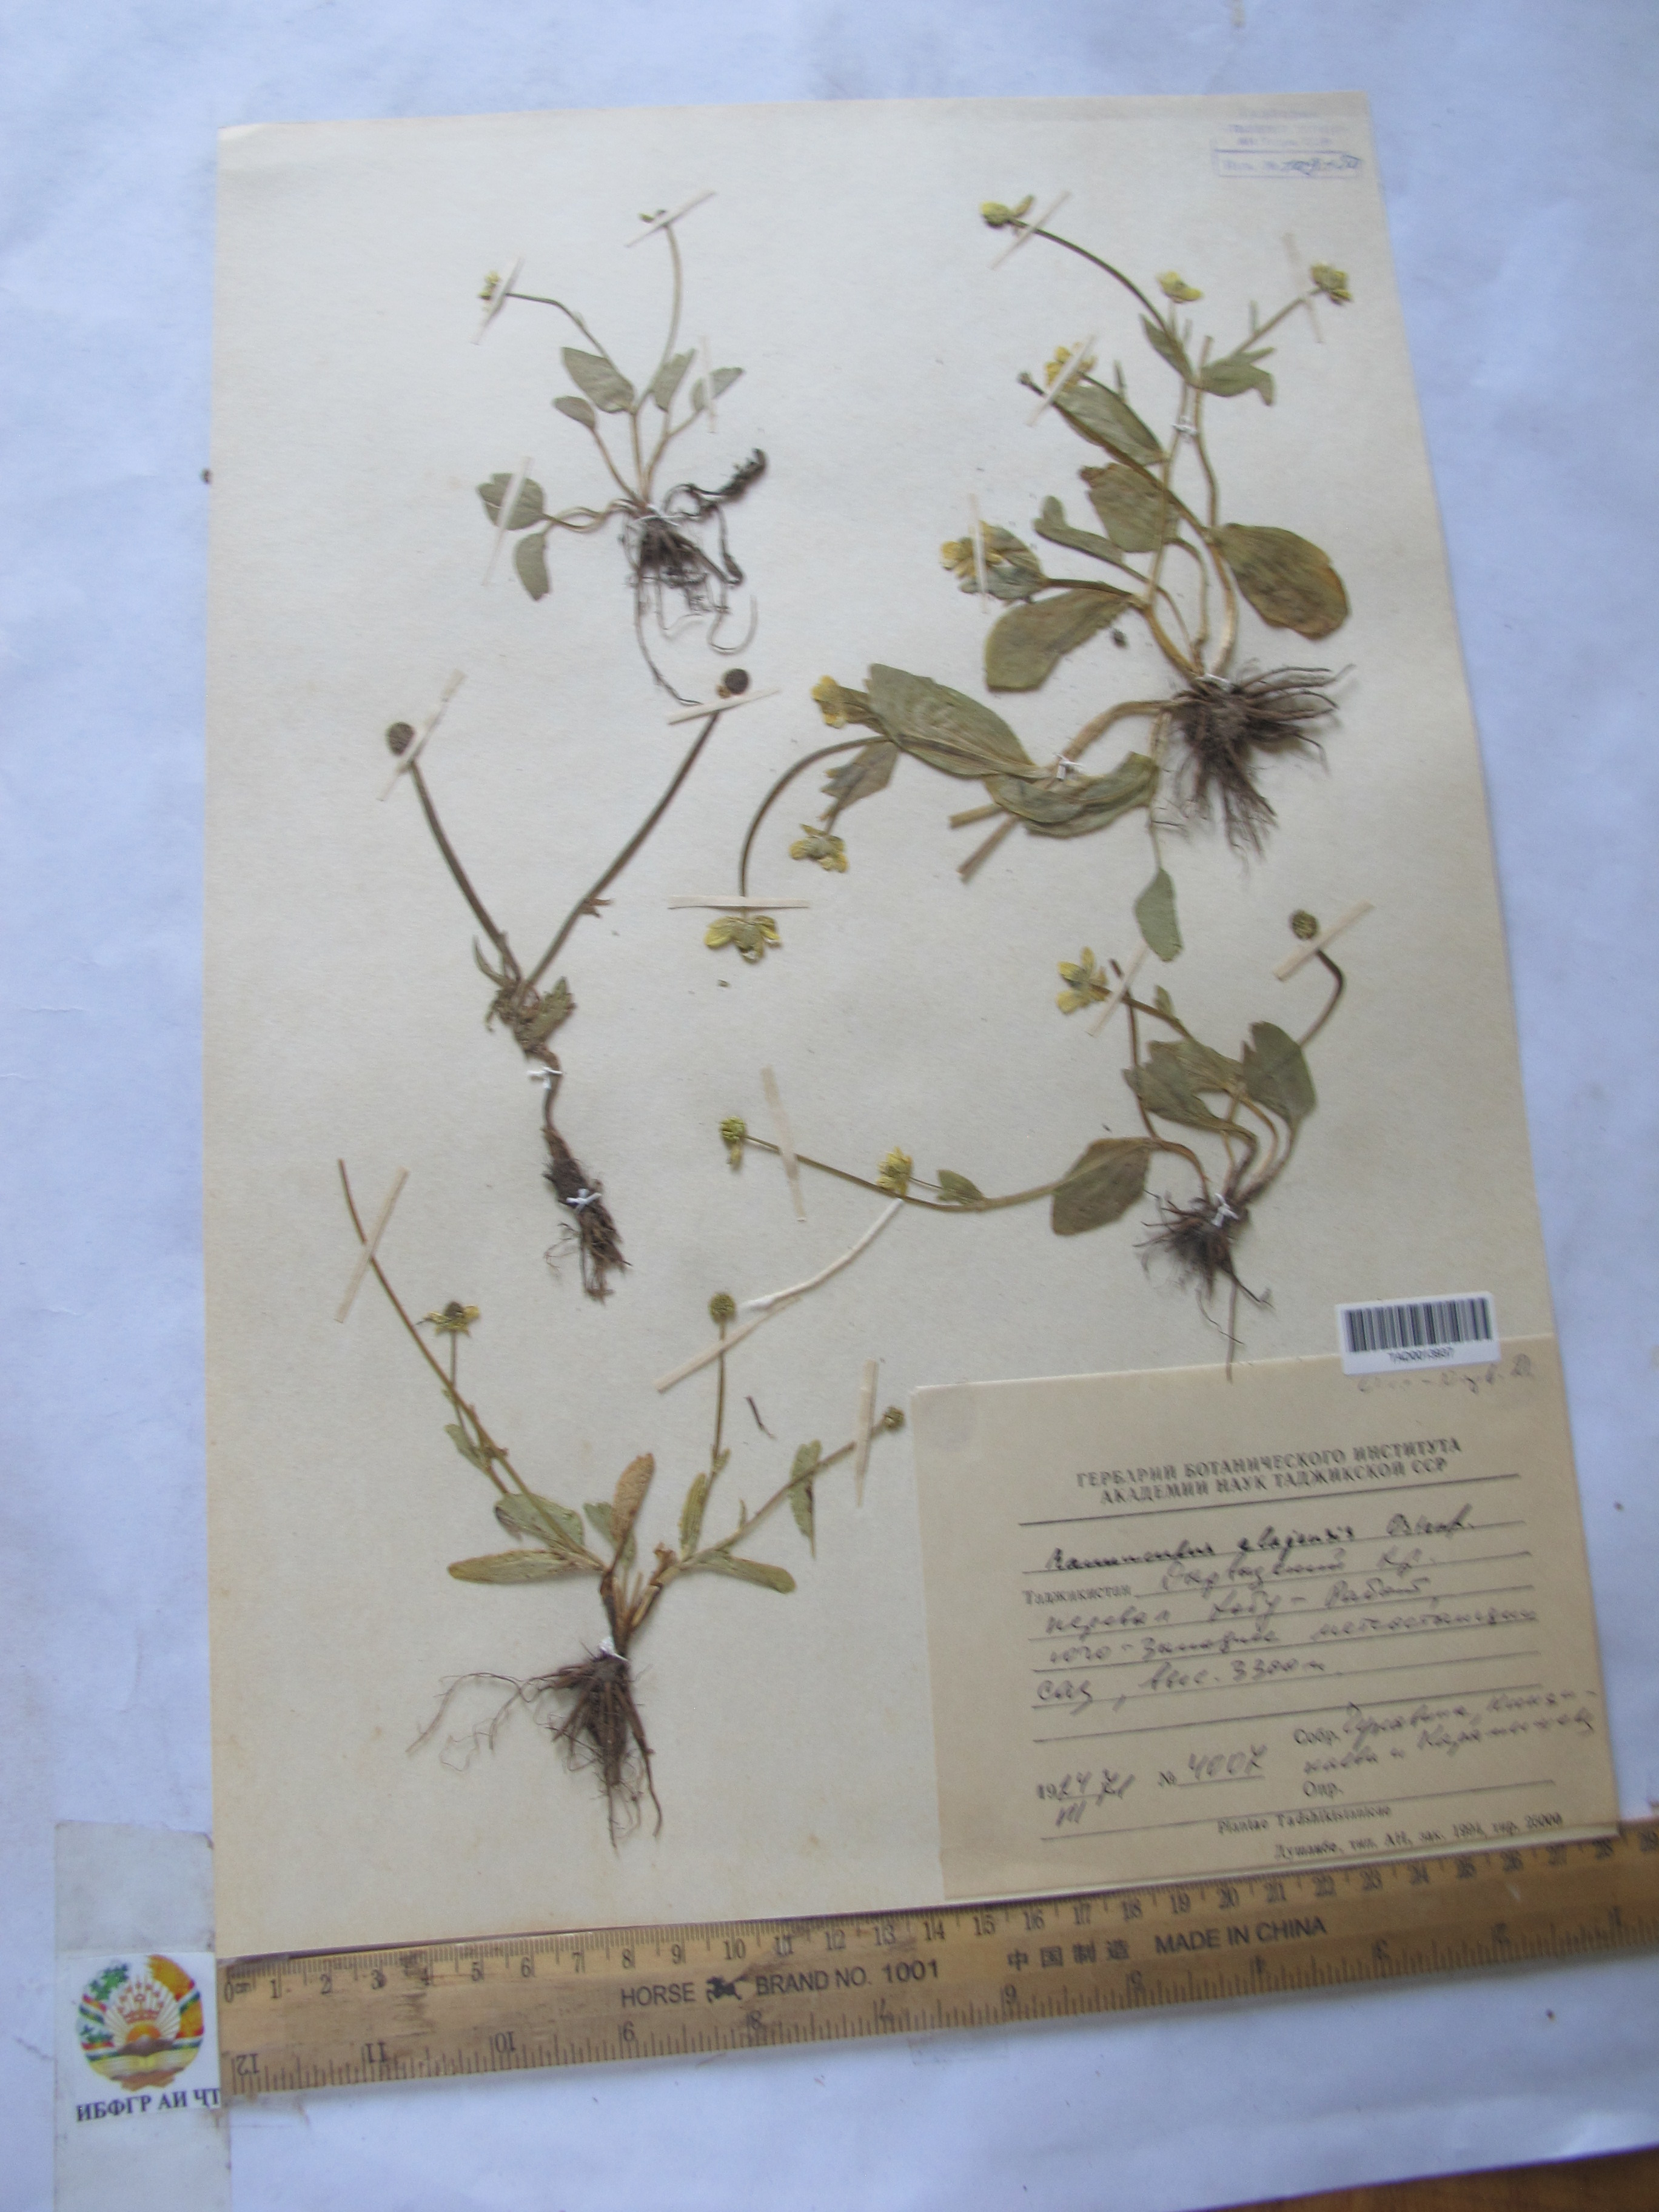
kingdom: Plantae
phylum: Tracheophyta
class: Magnoliopsida
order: Ranunculales
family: Ranunculaceae
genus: Ranunculus
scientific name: Ranunculus alaiensis
